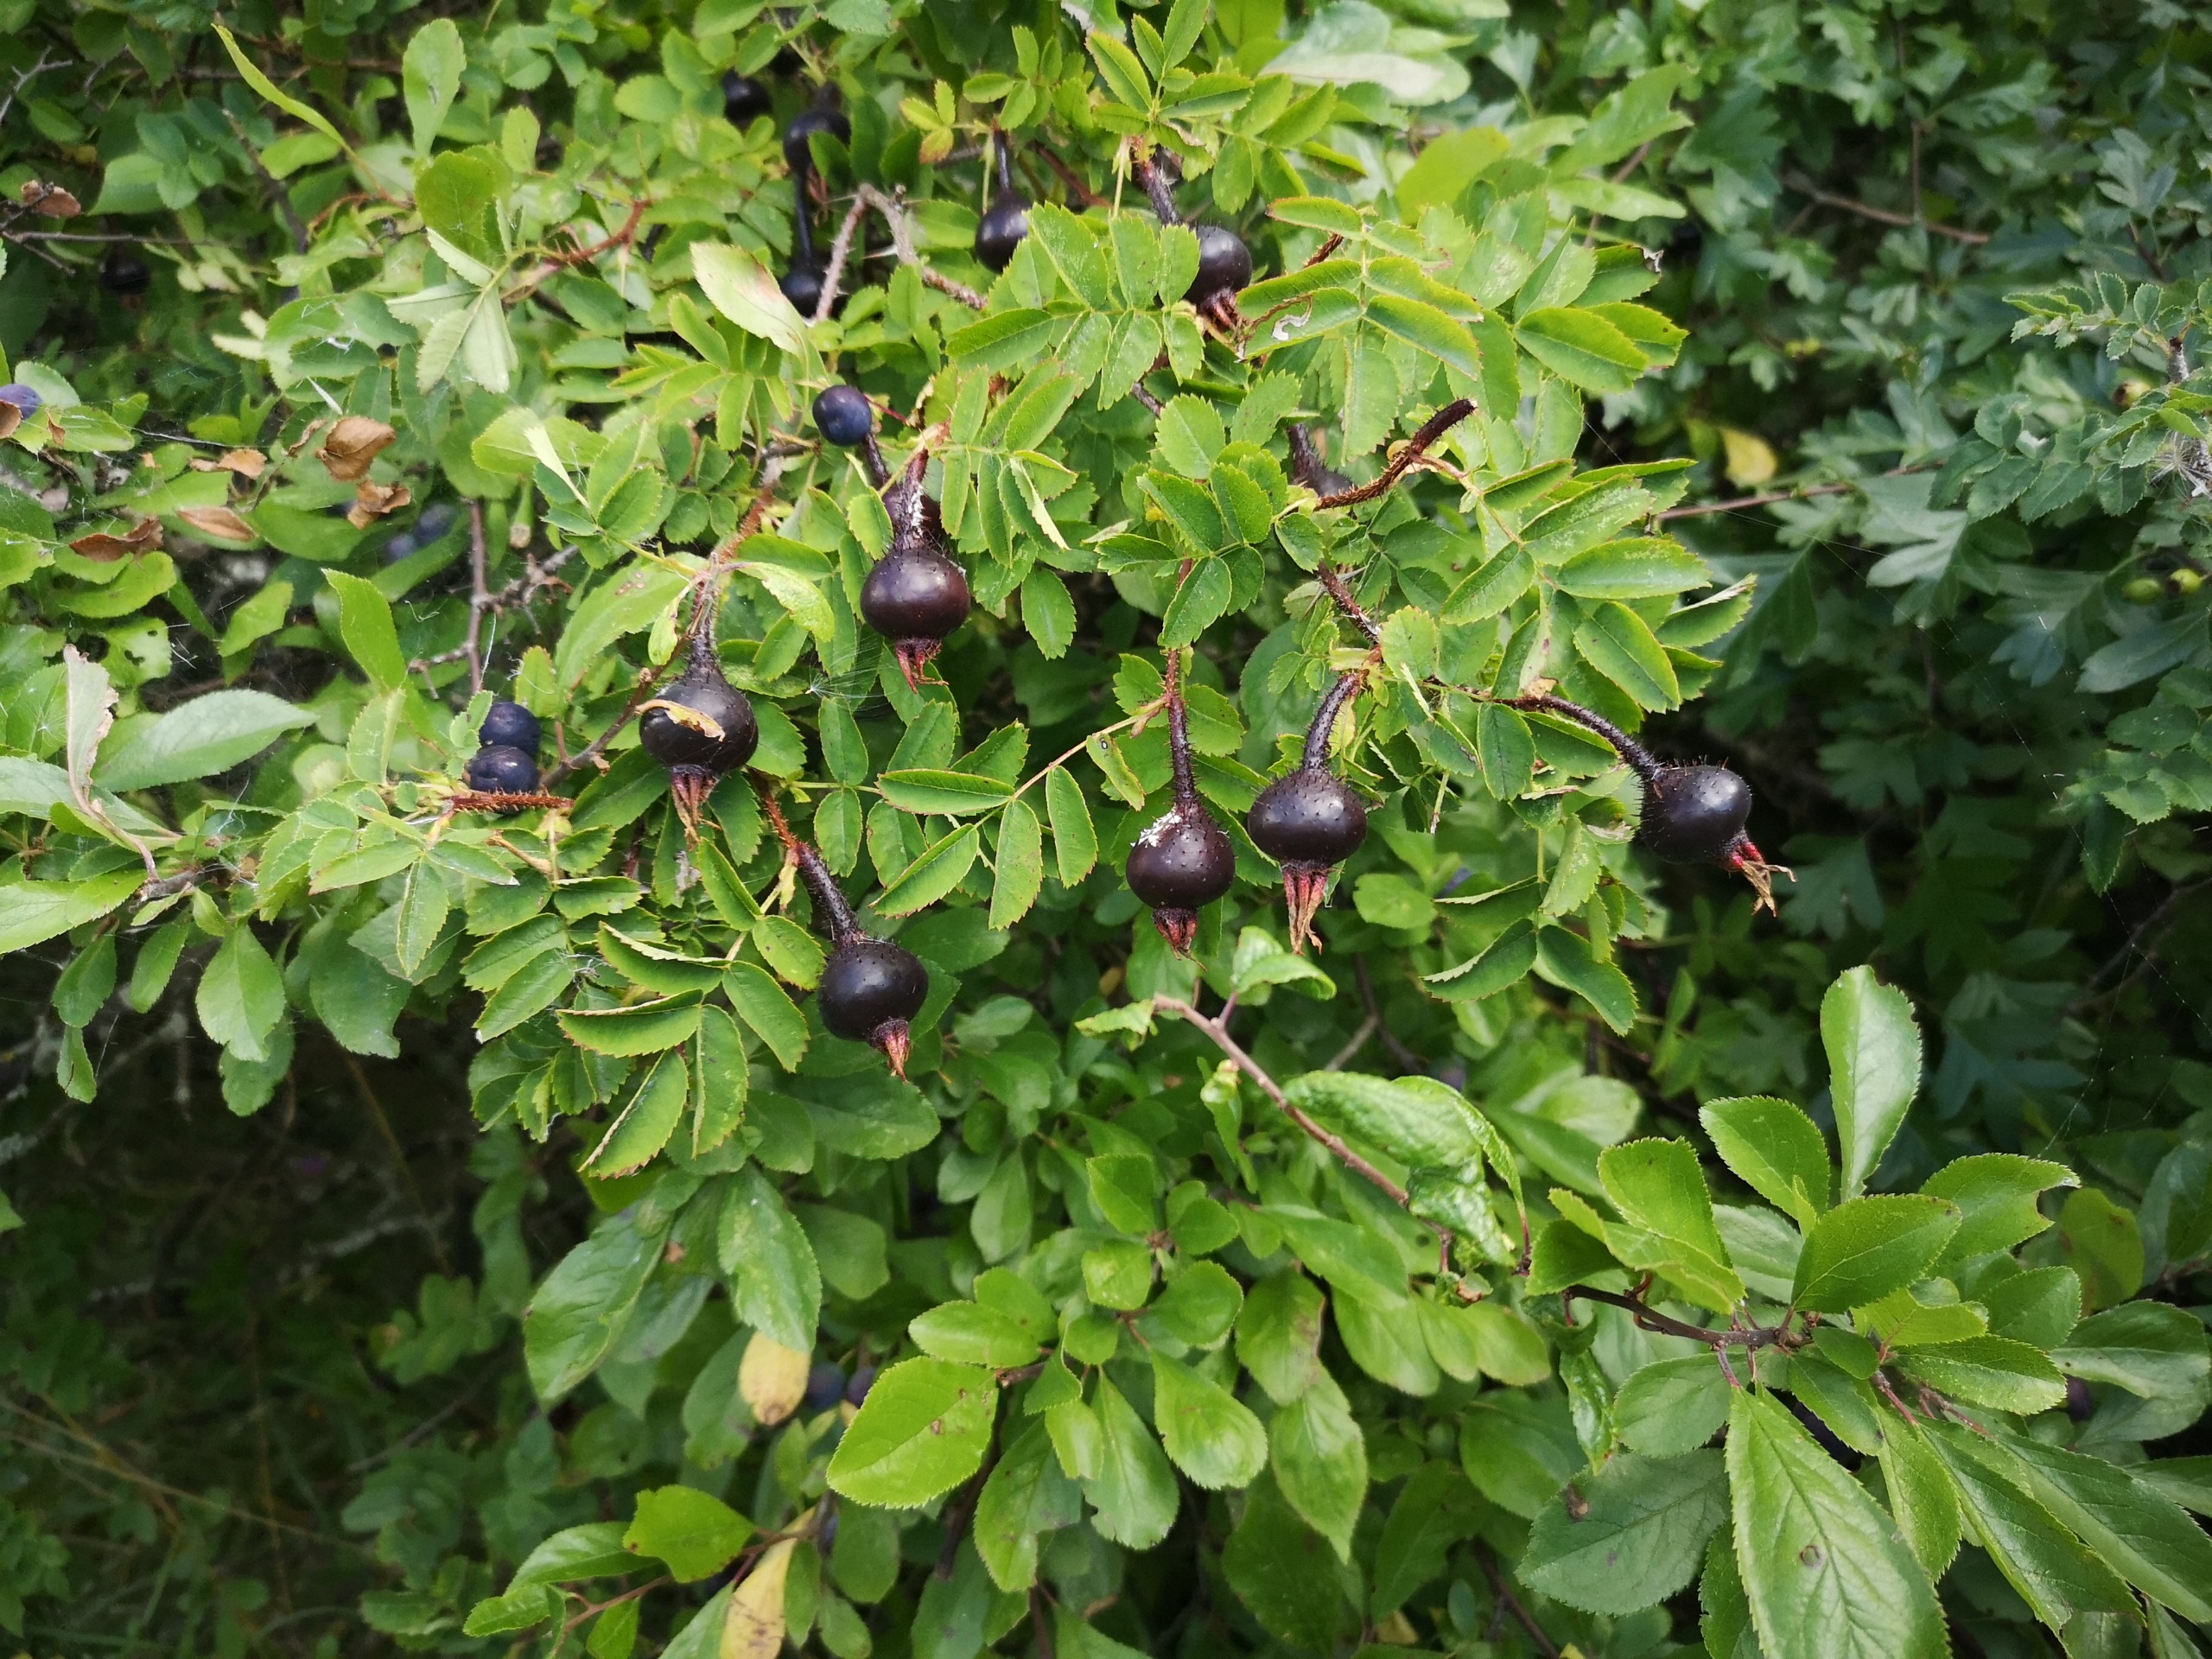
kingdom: Plantae
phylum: Tracheophyta
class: Magnoliopsida
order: Rosales
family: Rosaceae
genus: Rosa
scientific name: Rosa spinosissima
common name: Klit-rose
